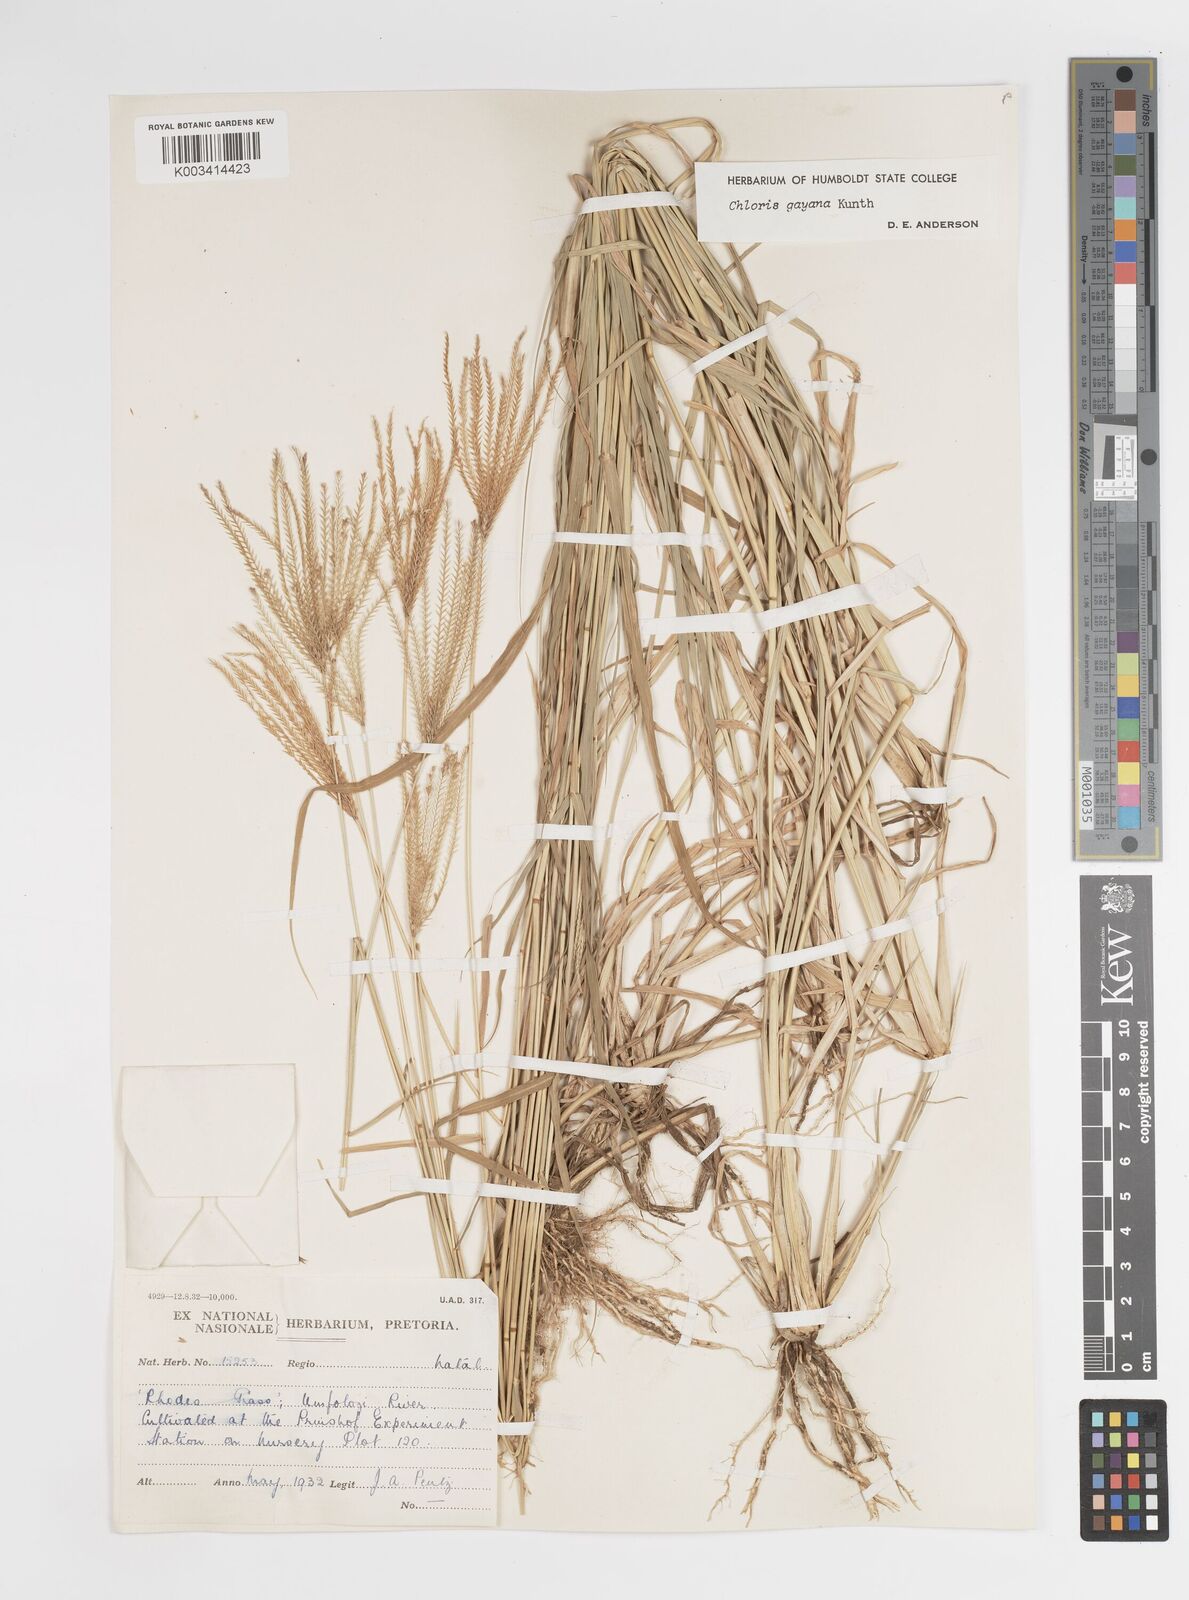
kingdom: Plantae
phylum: Tracheophyta
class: Liliopsida
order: Poales
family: Poaceae
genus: Chloris
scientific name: Chloris gayana
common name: Rhodes grass
